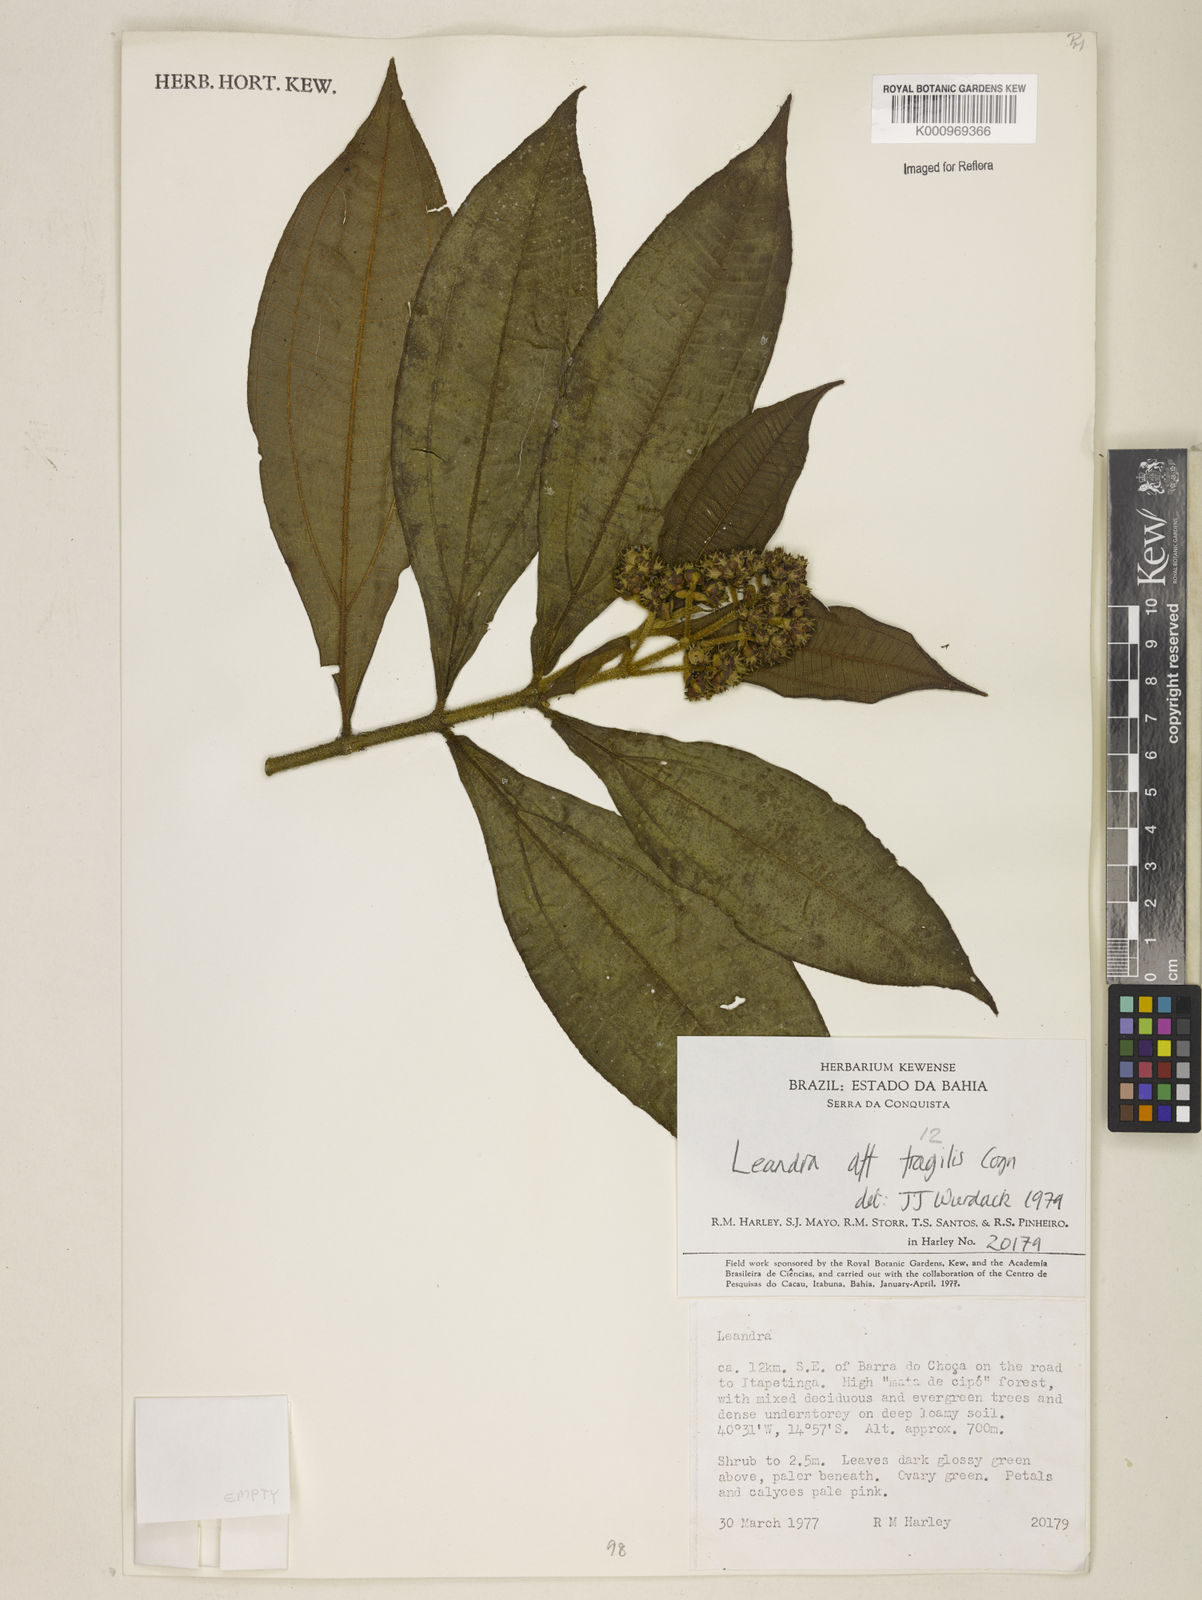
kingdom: Plantae
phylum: Tracheophyta
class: Magnoliopsida
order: Myrtales
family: Melastomataceae
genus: Miconia
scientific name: Miconia melastomoides
